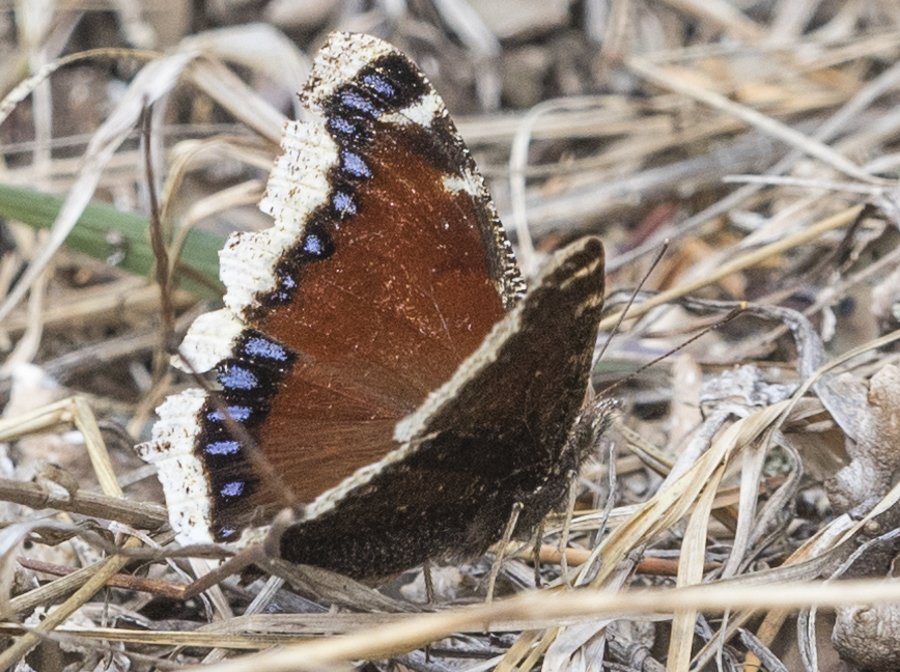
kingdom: Animalia
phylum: Arthropoda
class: Insecta
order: Lepidoptera
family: Nymphalidae
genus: Nymphalis
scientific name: Nymphalis antiopa
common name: Mourning Cloak
